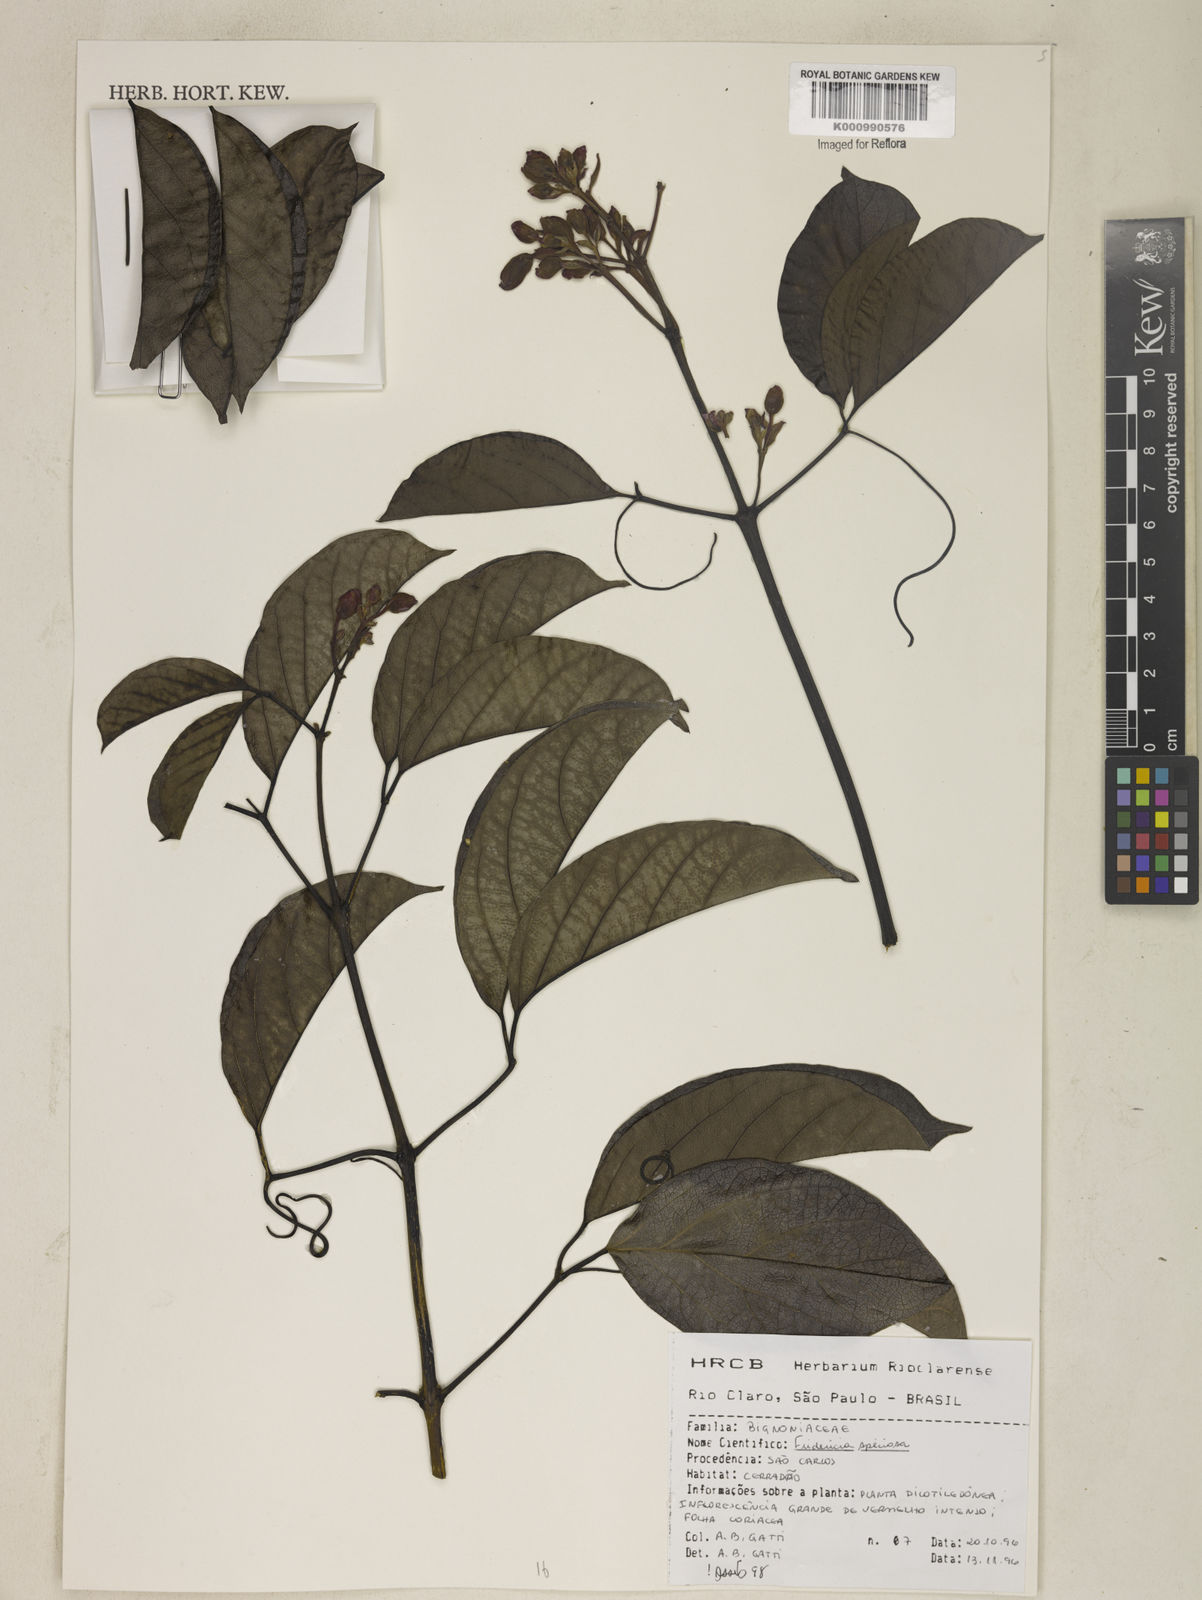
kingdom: Plantae
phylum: Tracheophyta
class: Magnoliopsida
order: Lamiales
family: Bignoniaceae
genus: Fridericia
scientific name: Fridericia speciosa
